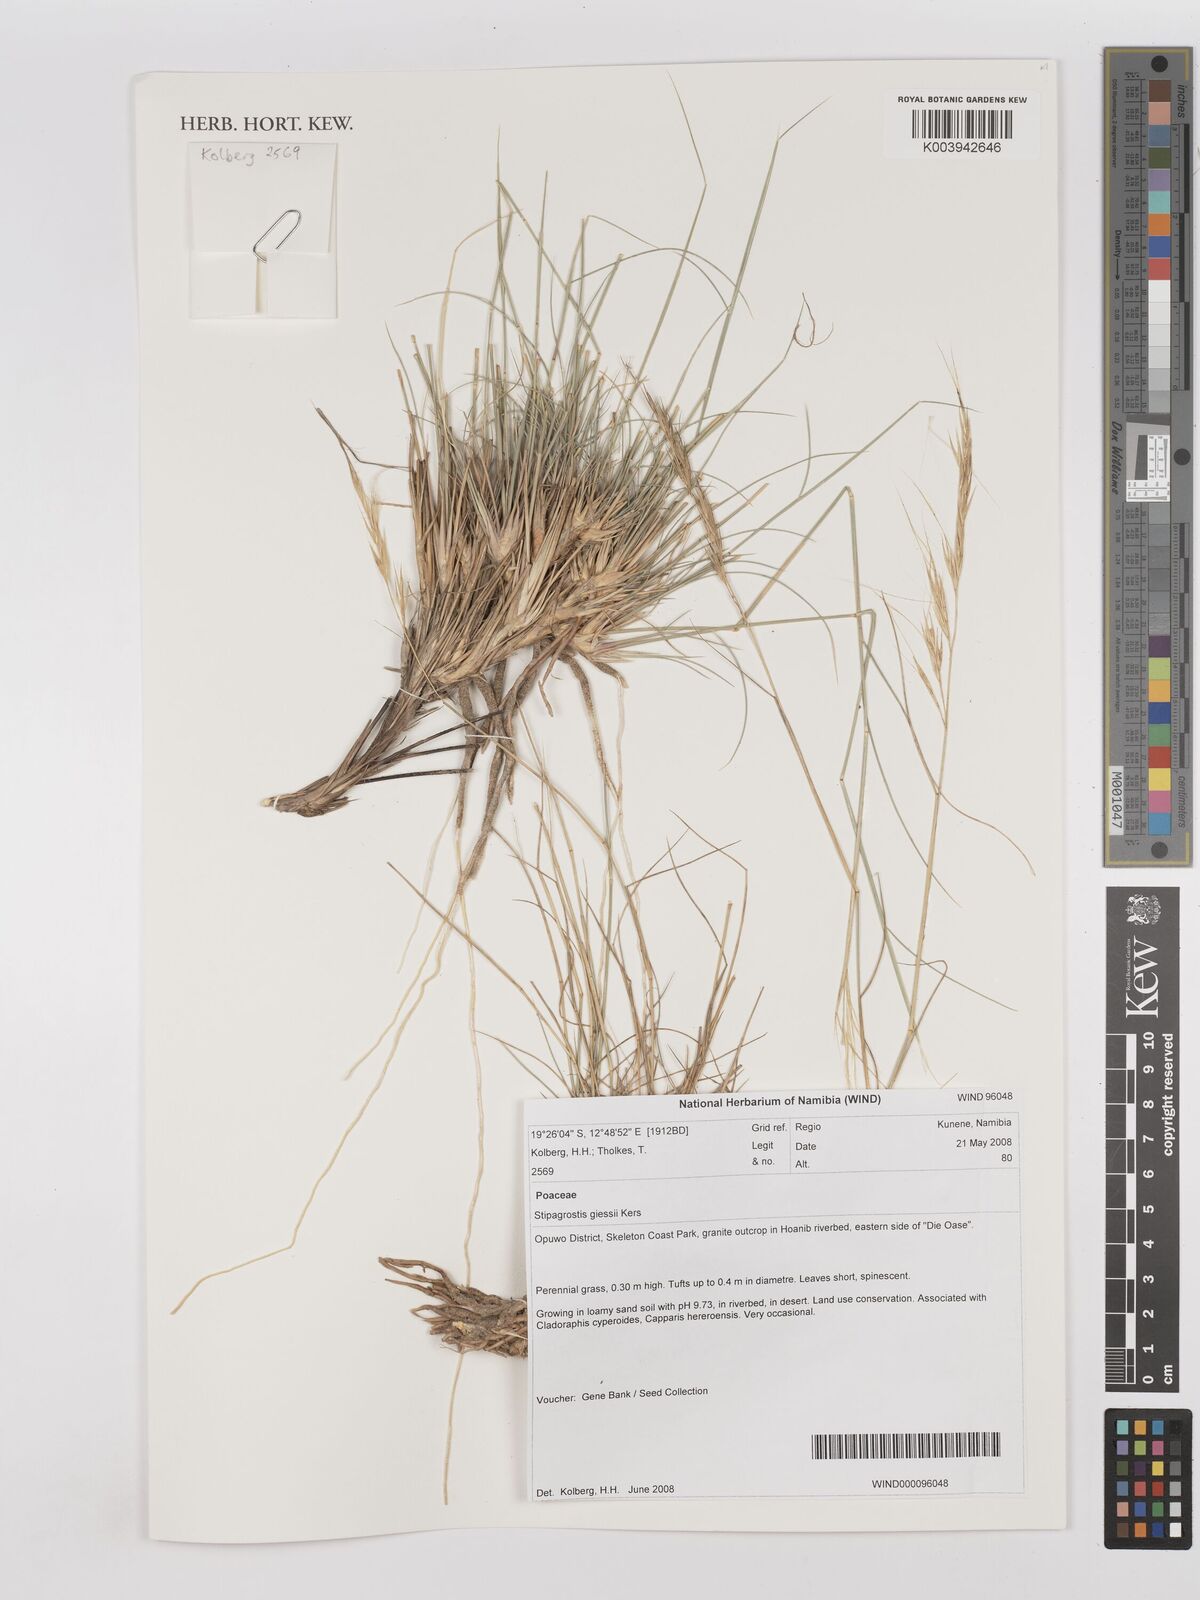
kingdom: Plantae
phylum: Tracheophyta
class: Liliopsida
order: Poales
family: Poaceae
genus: Stipagrostis
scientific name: Stipagrostis giessii
